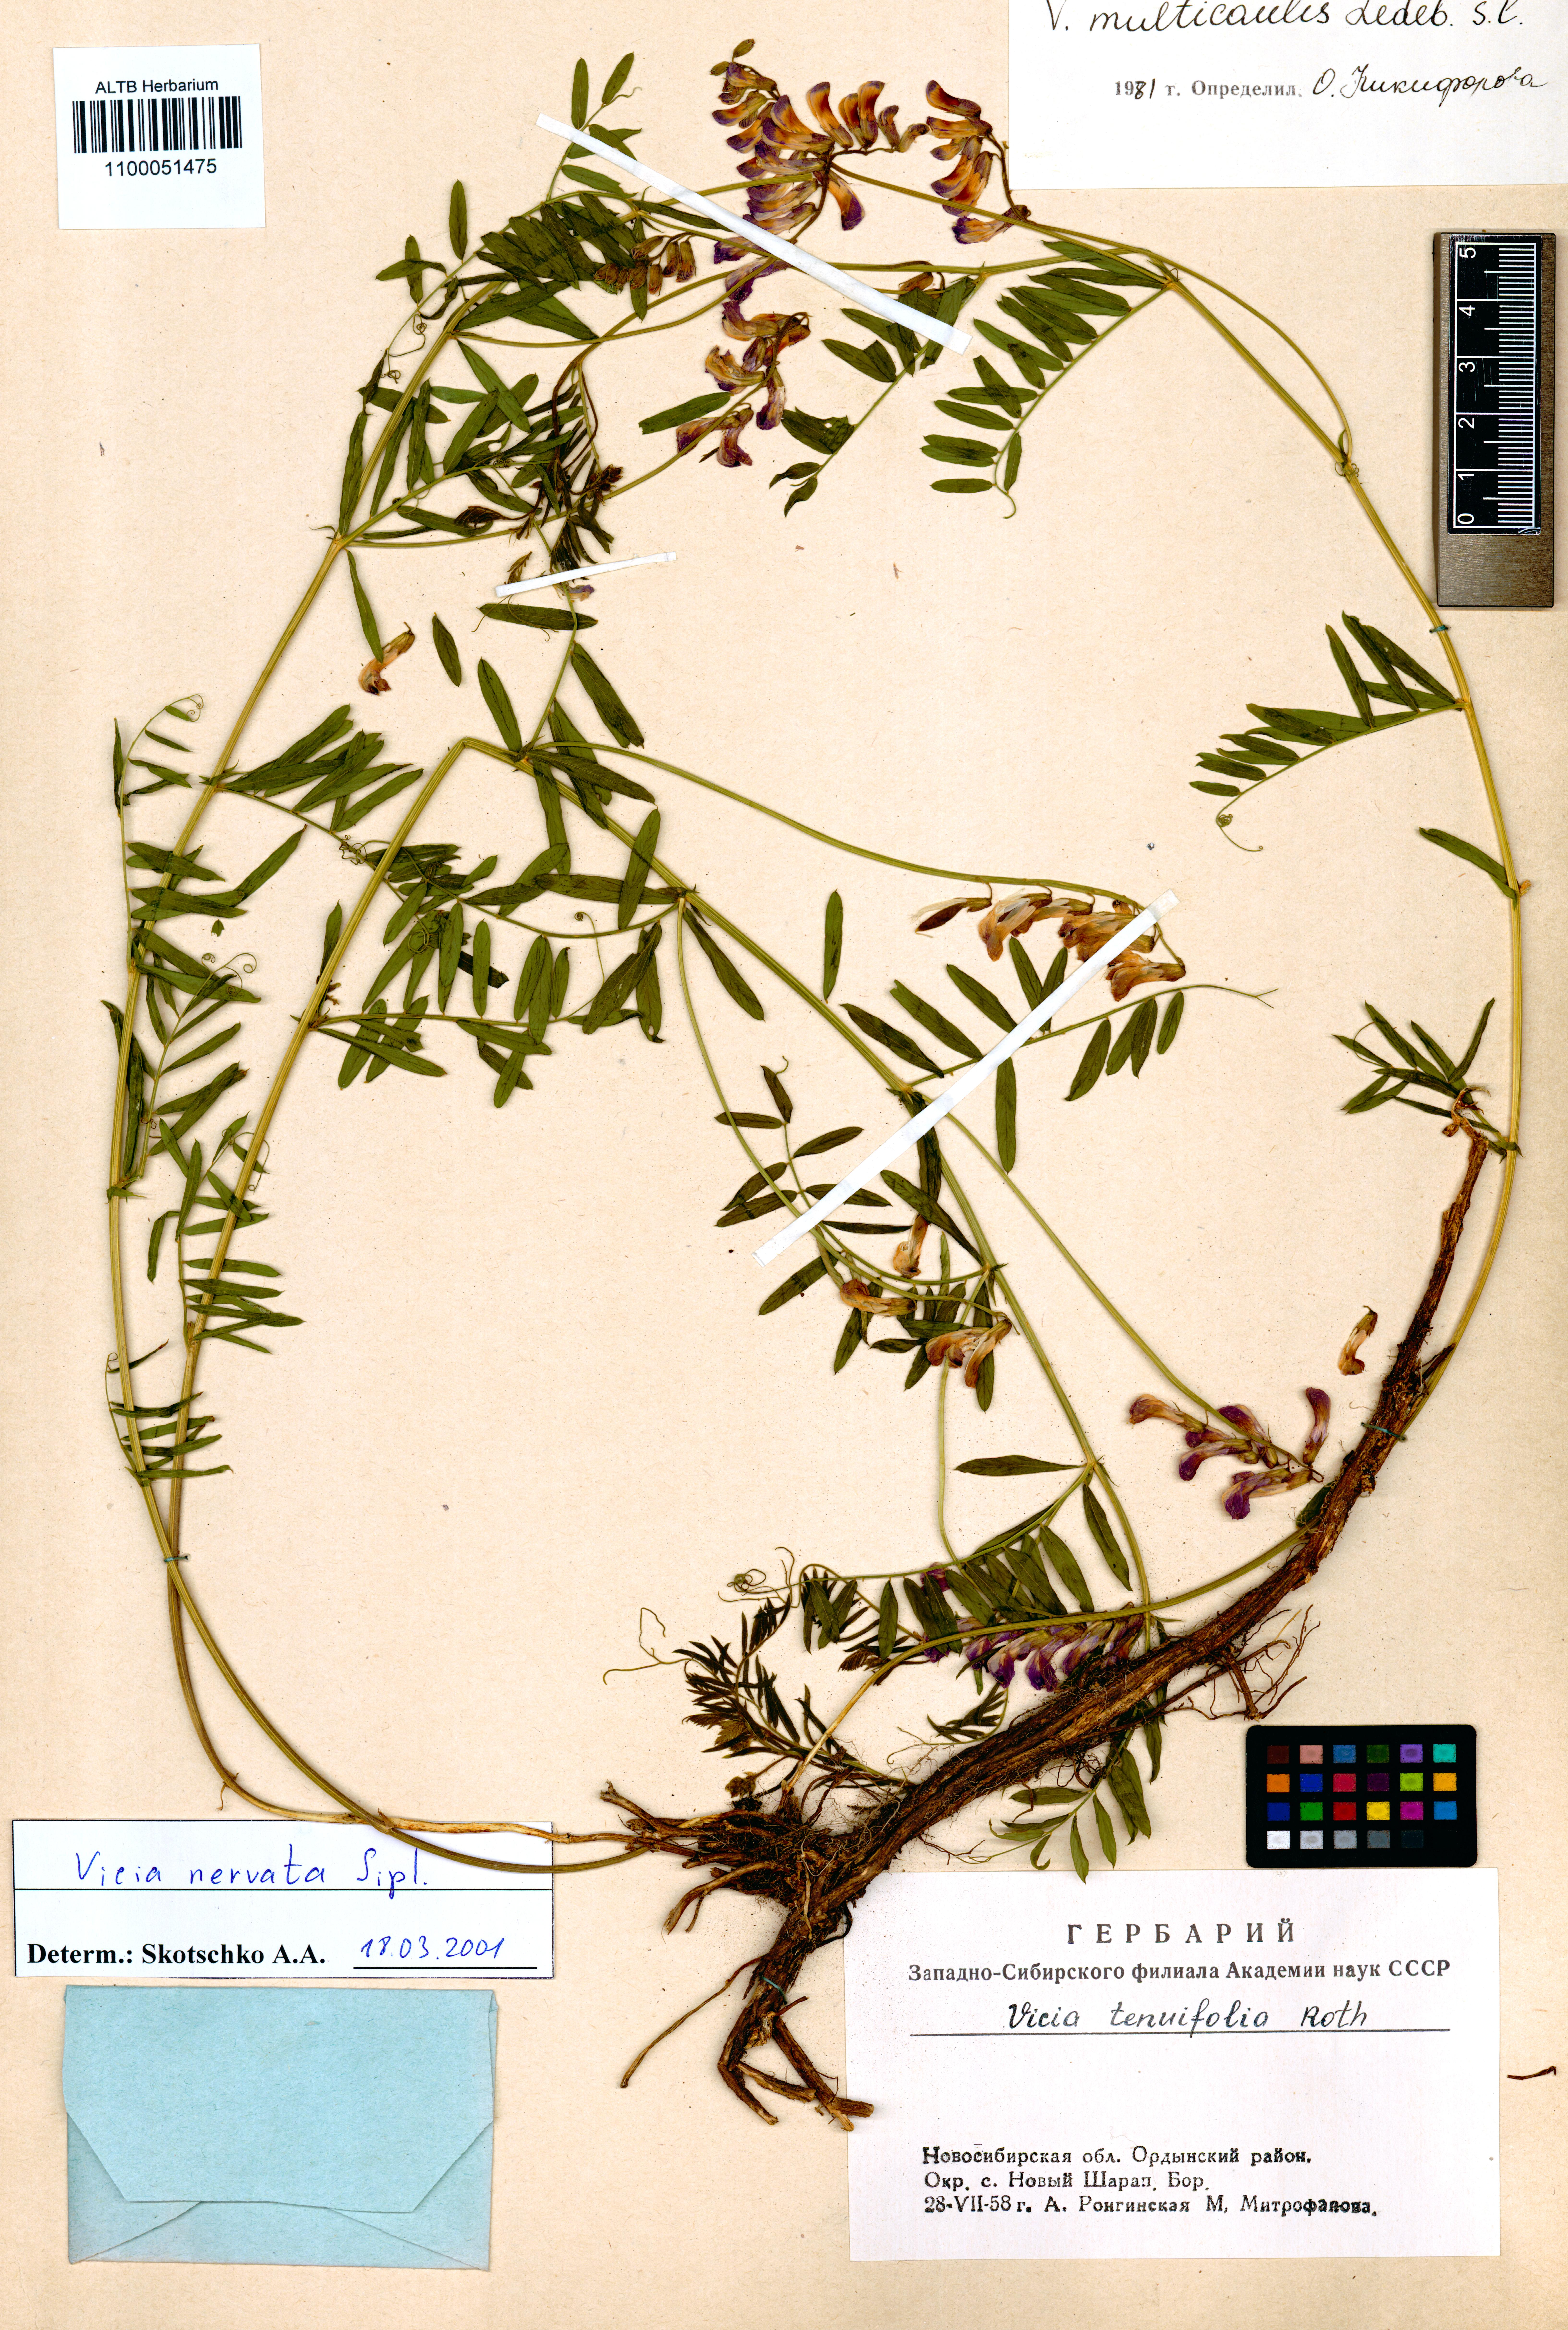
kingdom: Plantae
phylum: Tracheophyta
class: Magnoliopsida
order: Fabales
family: Fabaceae
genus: Vicia
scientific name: Vicia multicaulis
